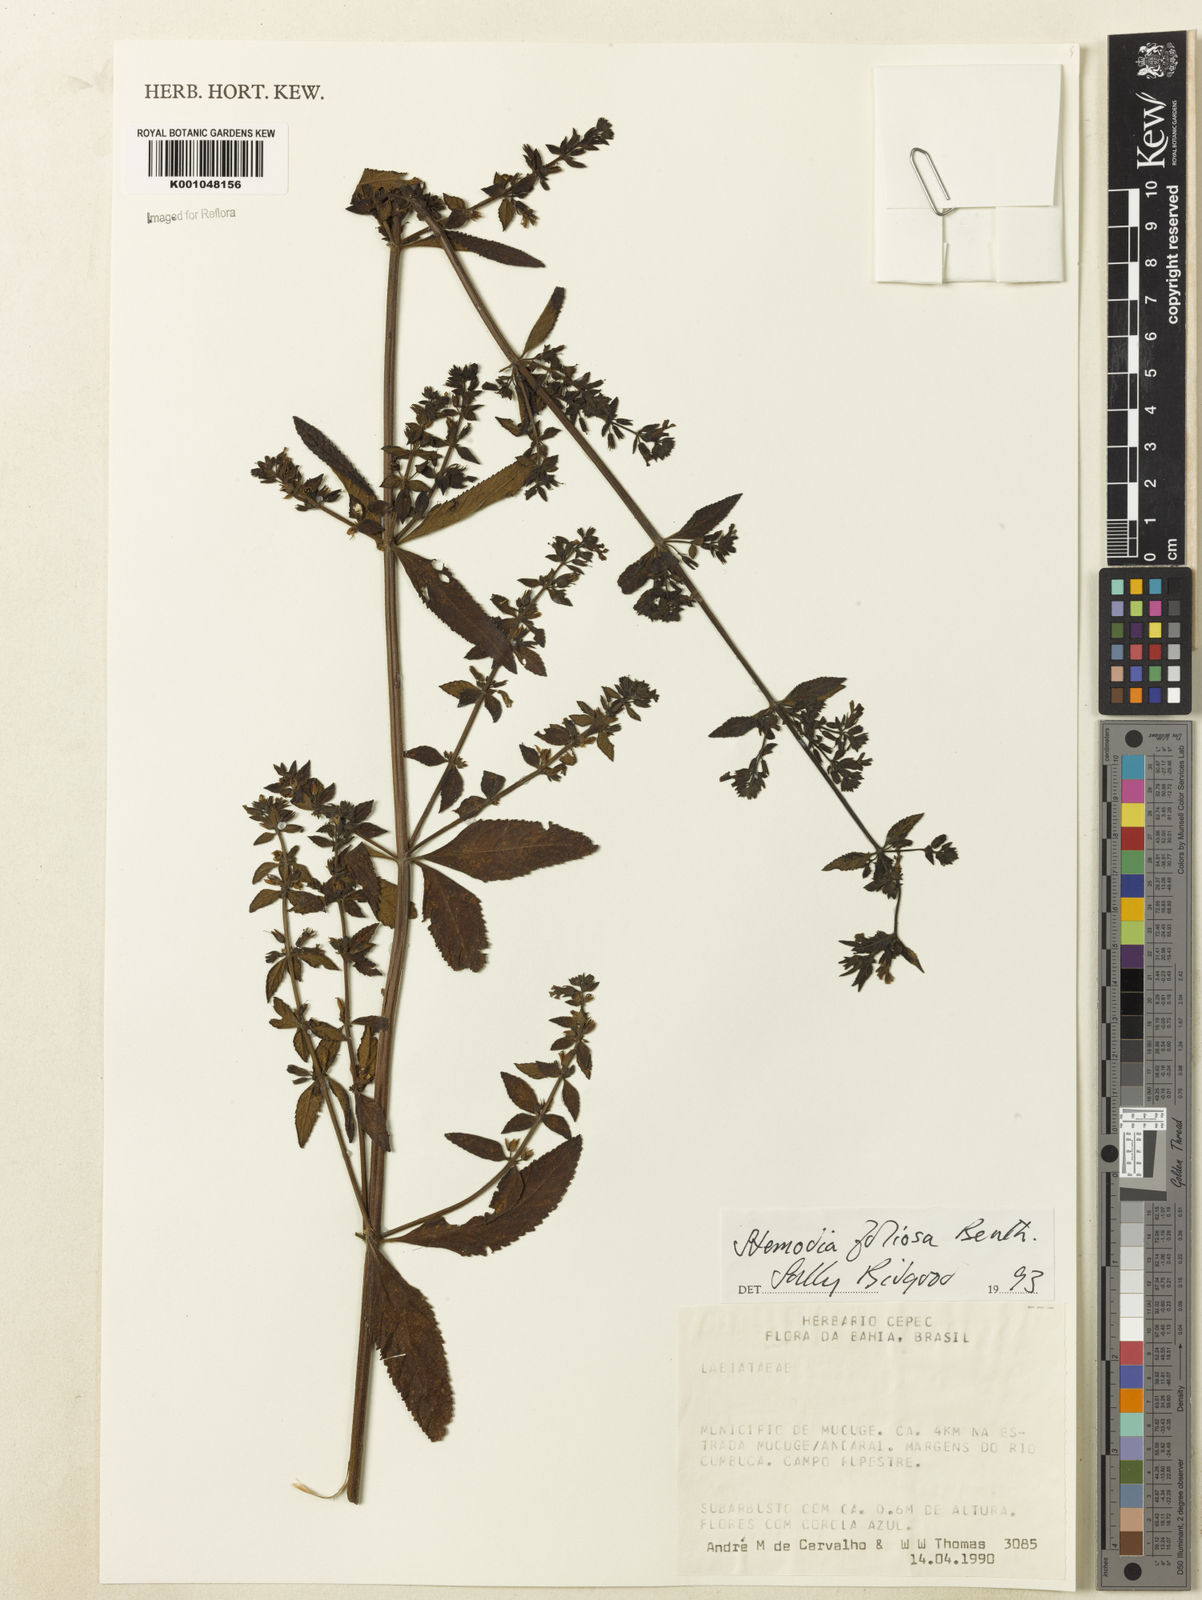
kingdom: Plantae
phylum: Tracheophyta
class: Magnoliopsida
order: Lamiales
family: Plantaginaceae
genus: Stemodia
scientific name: Stemodia foliosa
